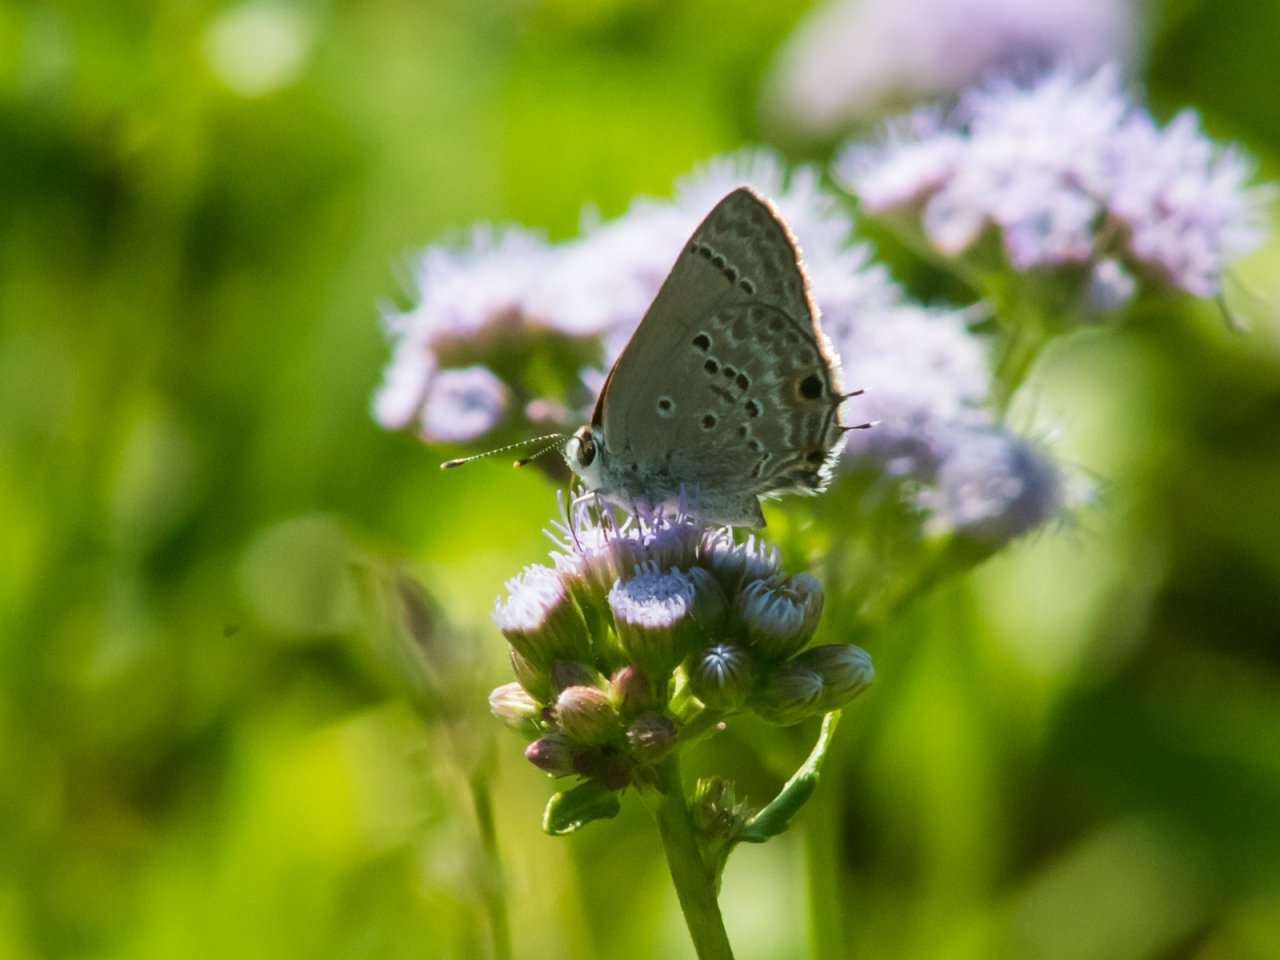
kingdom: Animalia
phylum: Arthropoda
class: Insecta
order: Lepidoptera
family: Lycaenidae
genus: Callicista
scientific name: Callicista columella
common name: Mallow Scrub-Hairstreak
